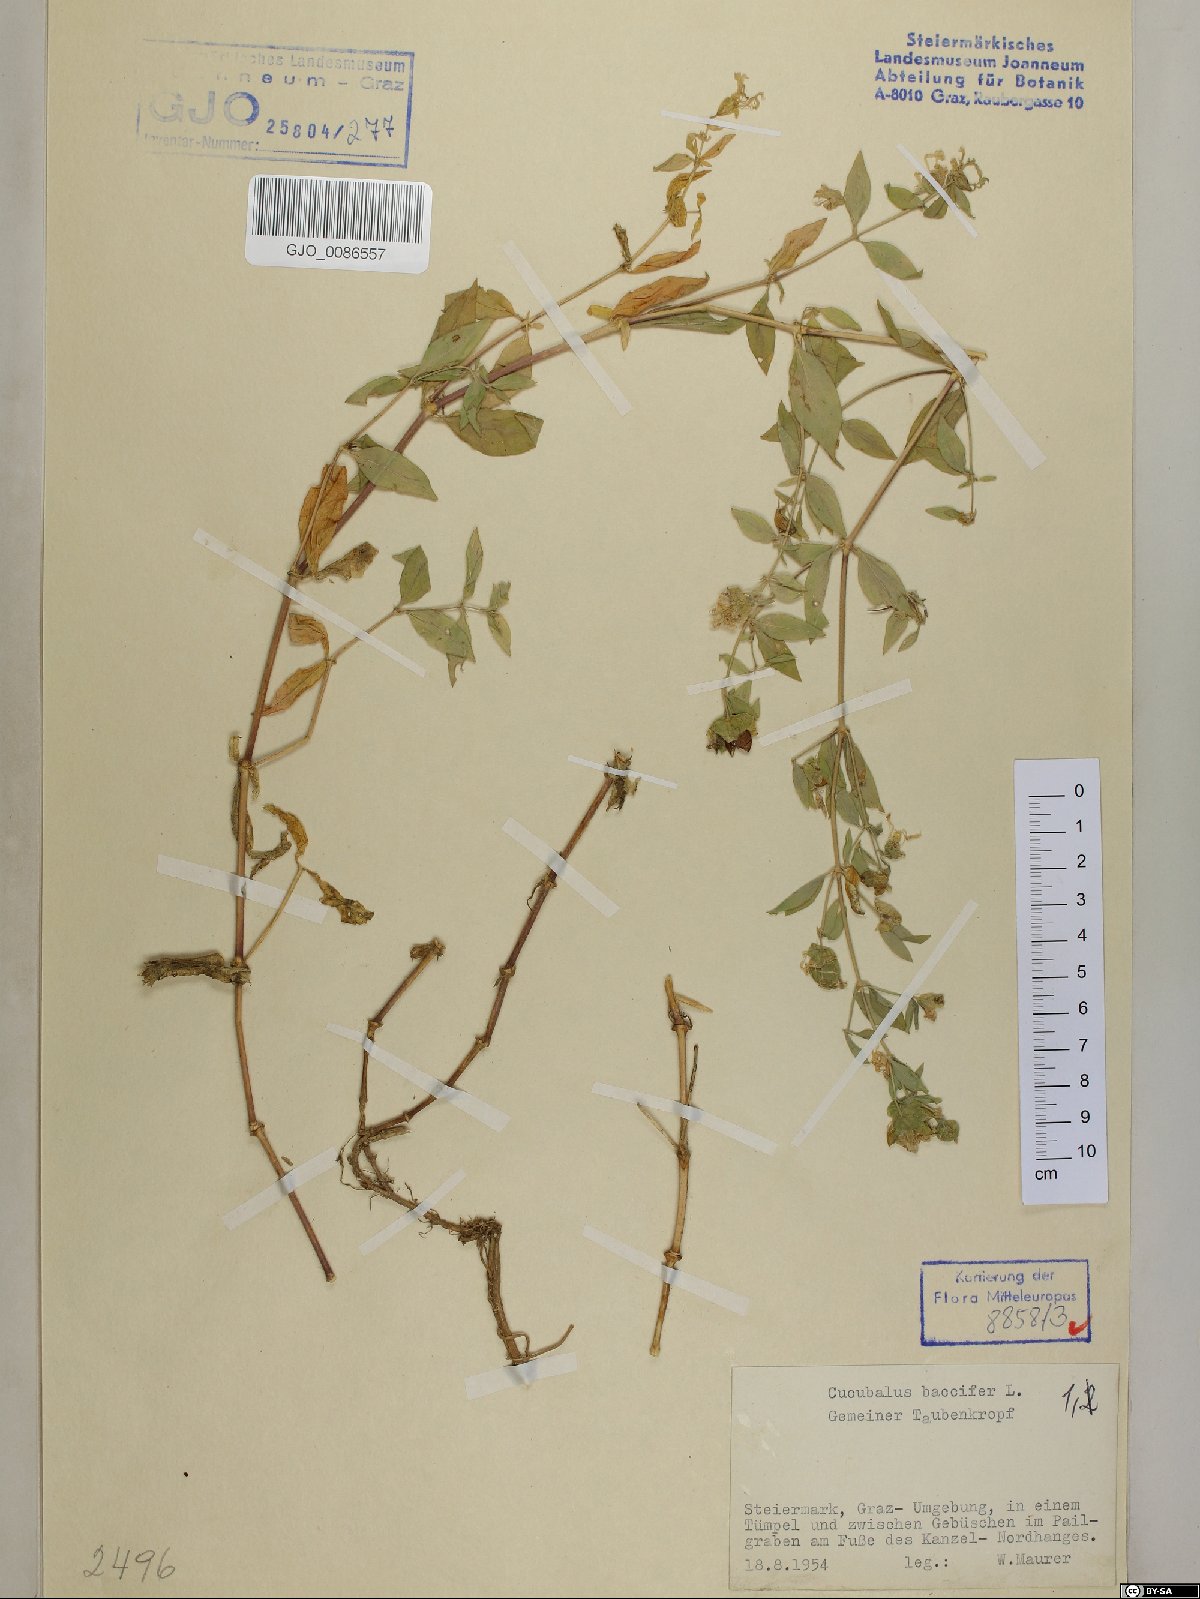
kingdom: Plantae
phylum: Tracheophyta
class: Magnoliopsida
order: Caryophyllales
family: Caryophyllaceae
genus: Silene
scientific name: Silene baccifera
